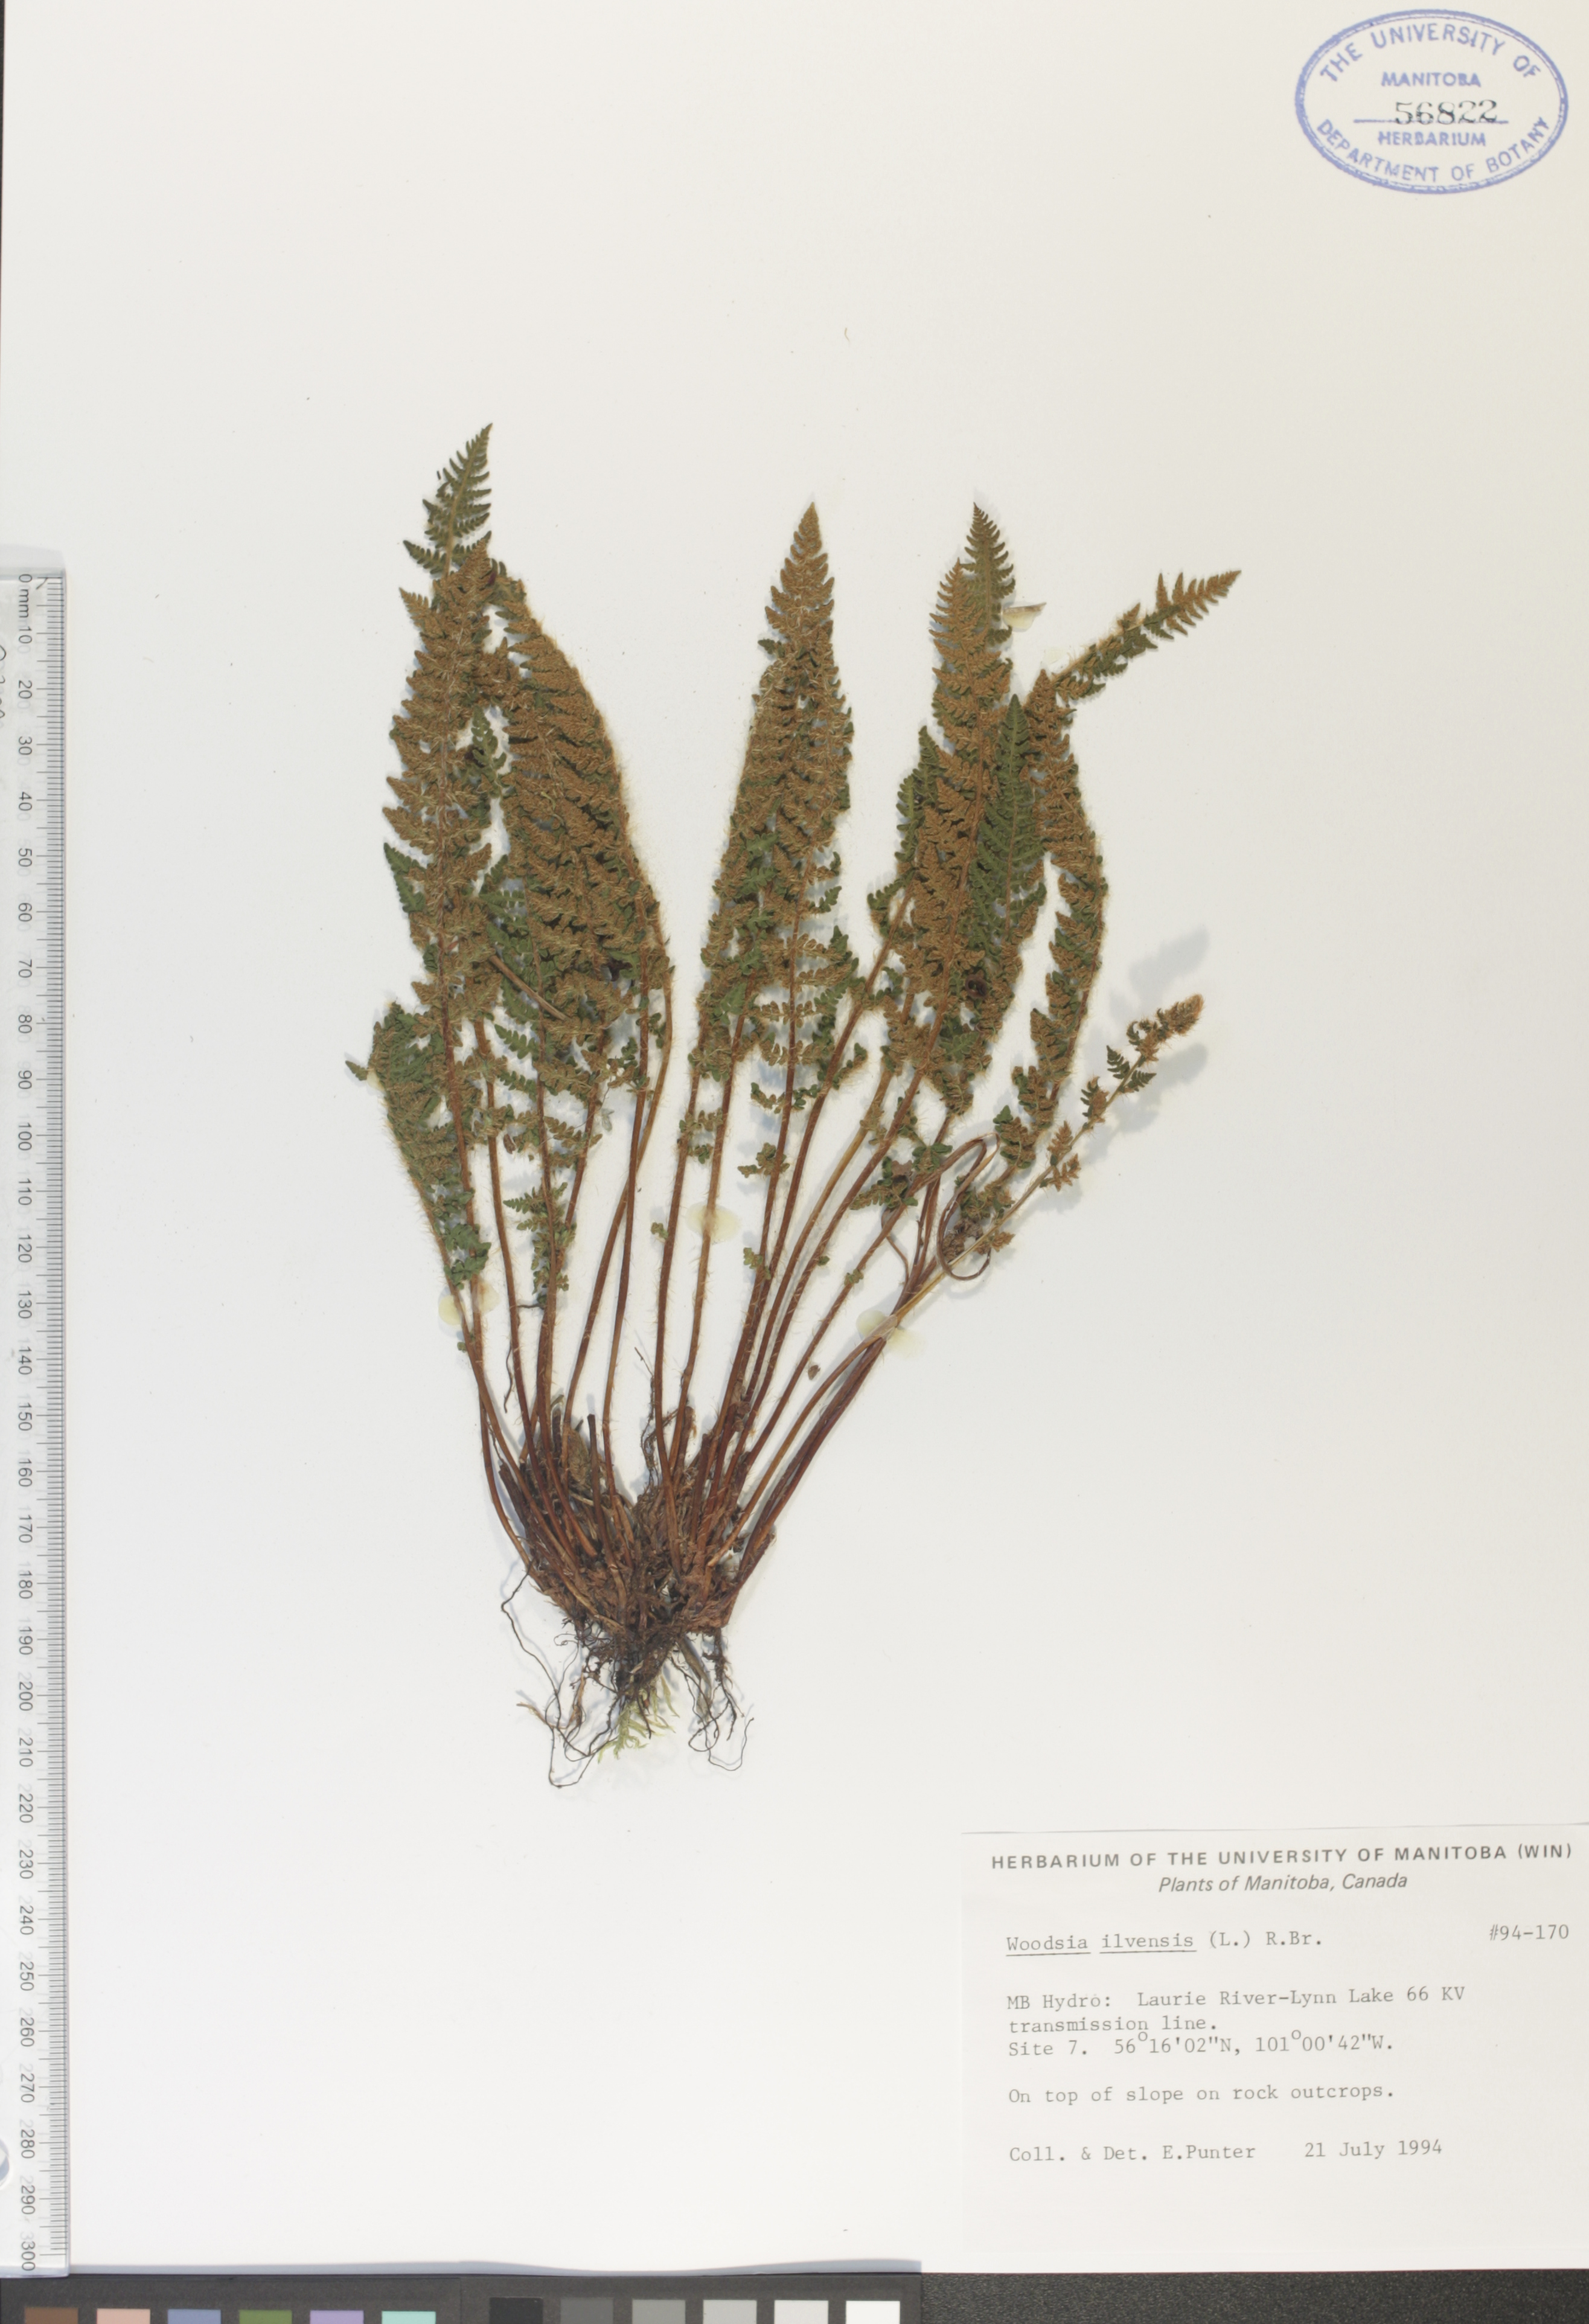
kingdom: Plantae
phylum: Tracheophyta
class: Polypodiopsida
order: Polypodiales
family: Woodsiaceae
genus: Woodsia
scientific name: Woodsia ilvensis
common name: Fragrant woodsia
